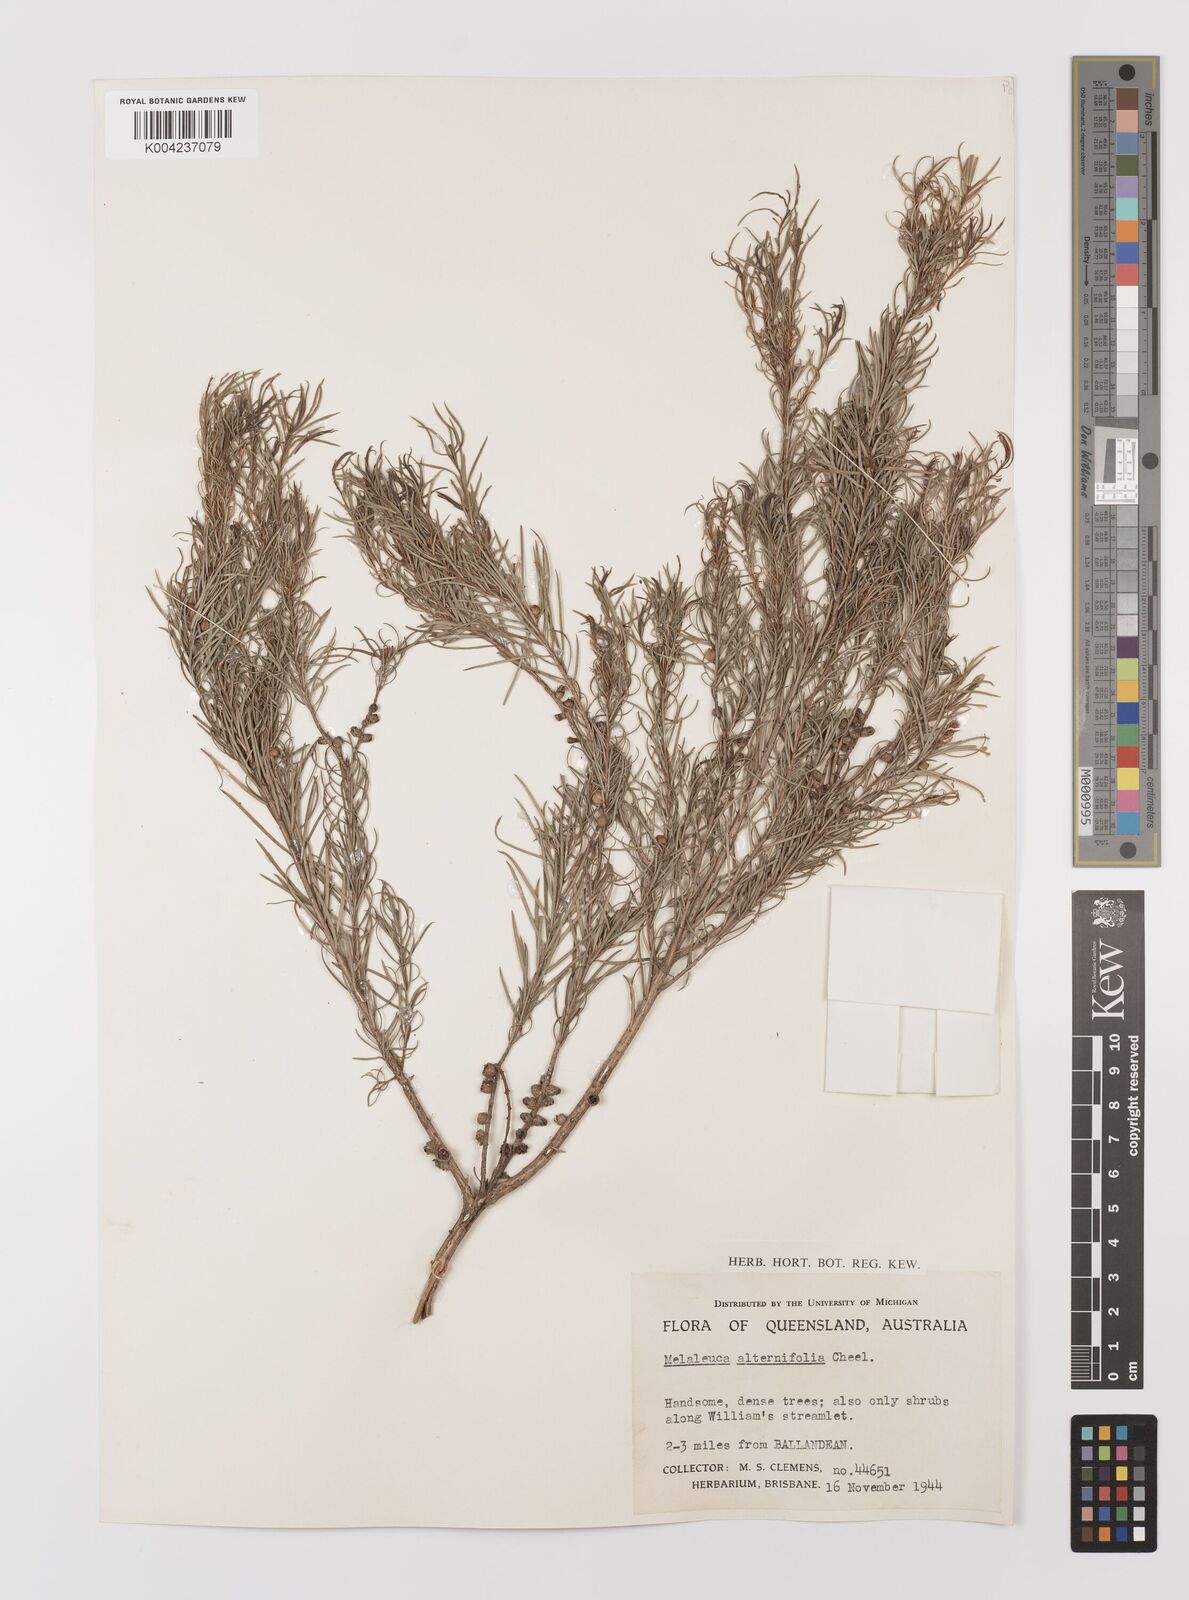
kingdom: Plantae
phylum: Tracheophyta
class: Magnoliopsida
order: Myrtales
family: Myrtaceae
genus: Melaleuca
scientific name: Melaleuca alternifolia
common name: Narrow-leaf paperbark
